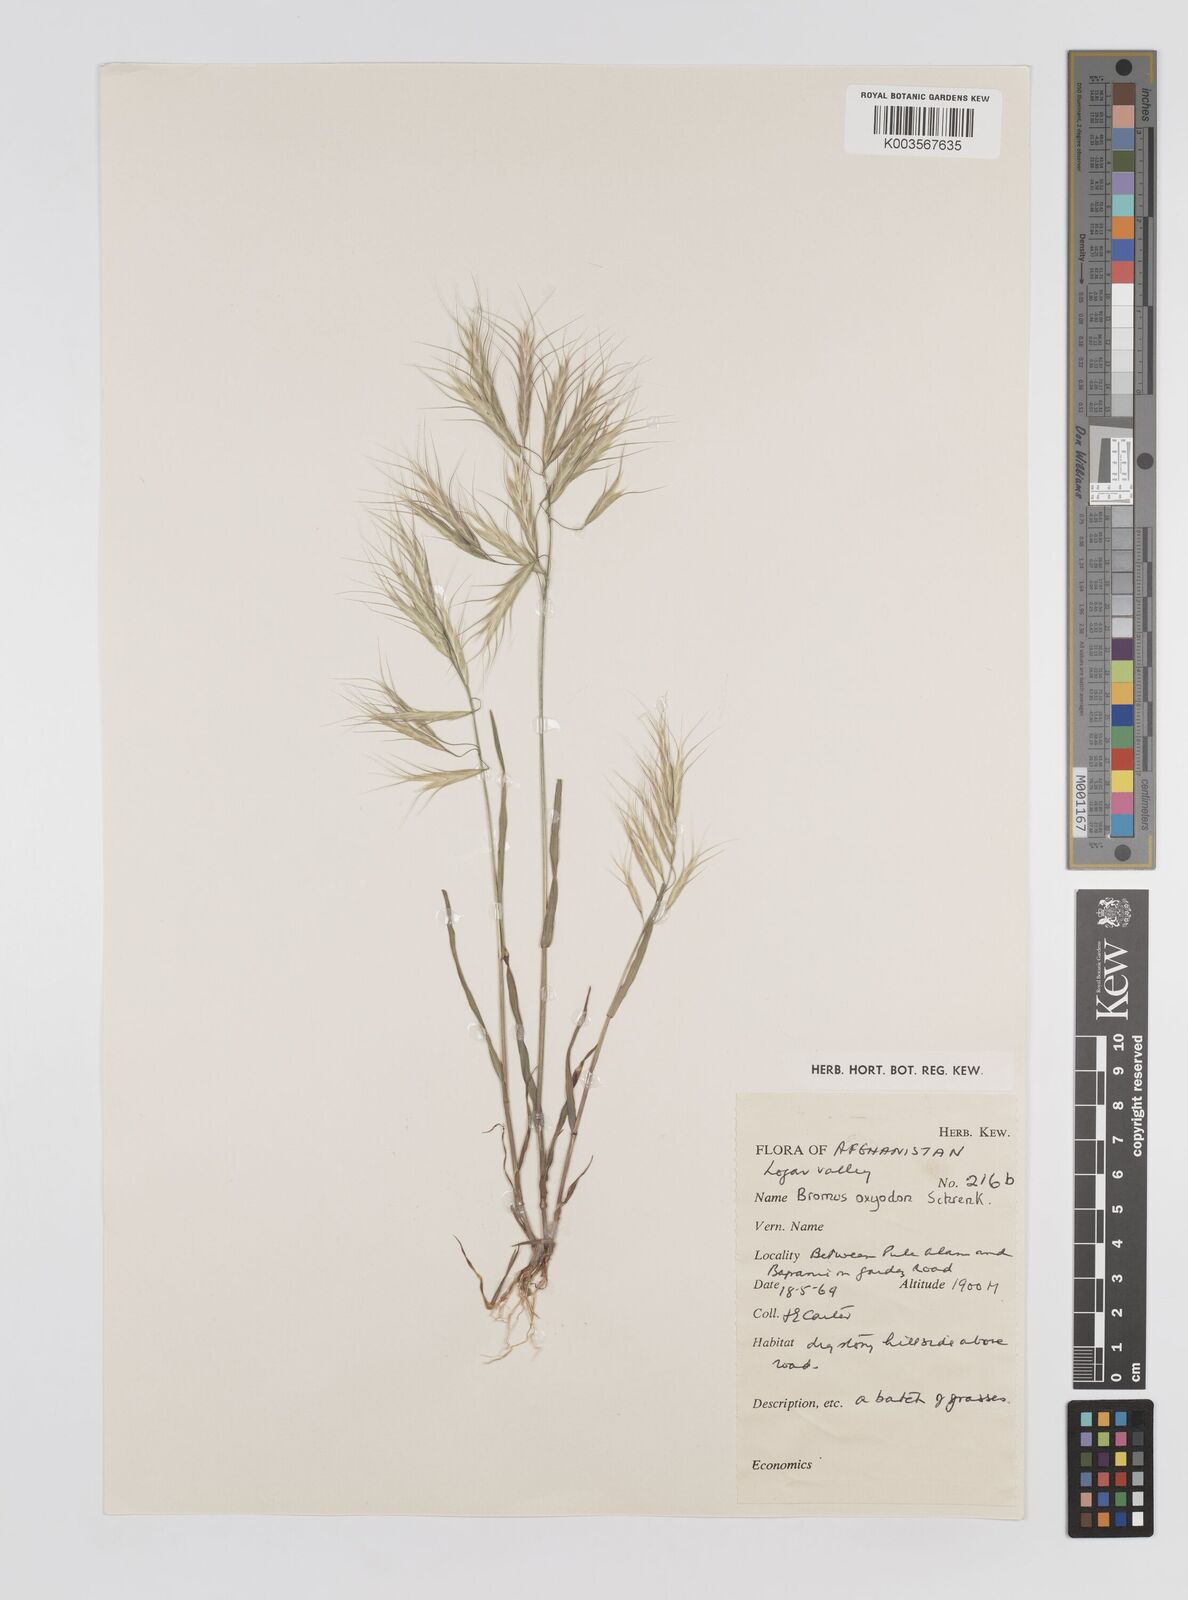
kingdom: Plantae
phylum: Tracheophyta
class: Liliopsida
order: Poales
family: Poaceae
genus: Bromus
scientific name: Bromus oxyodon
